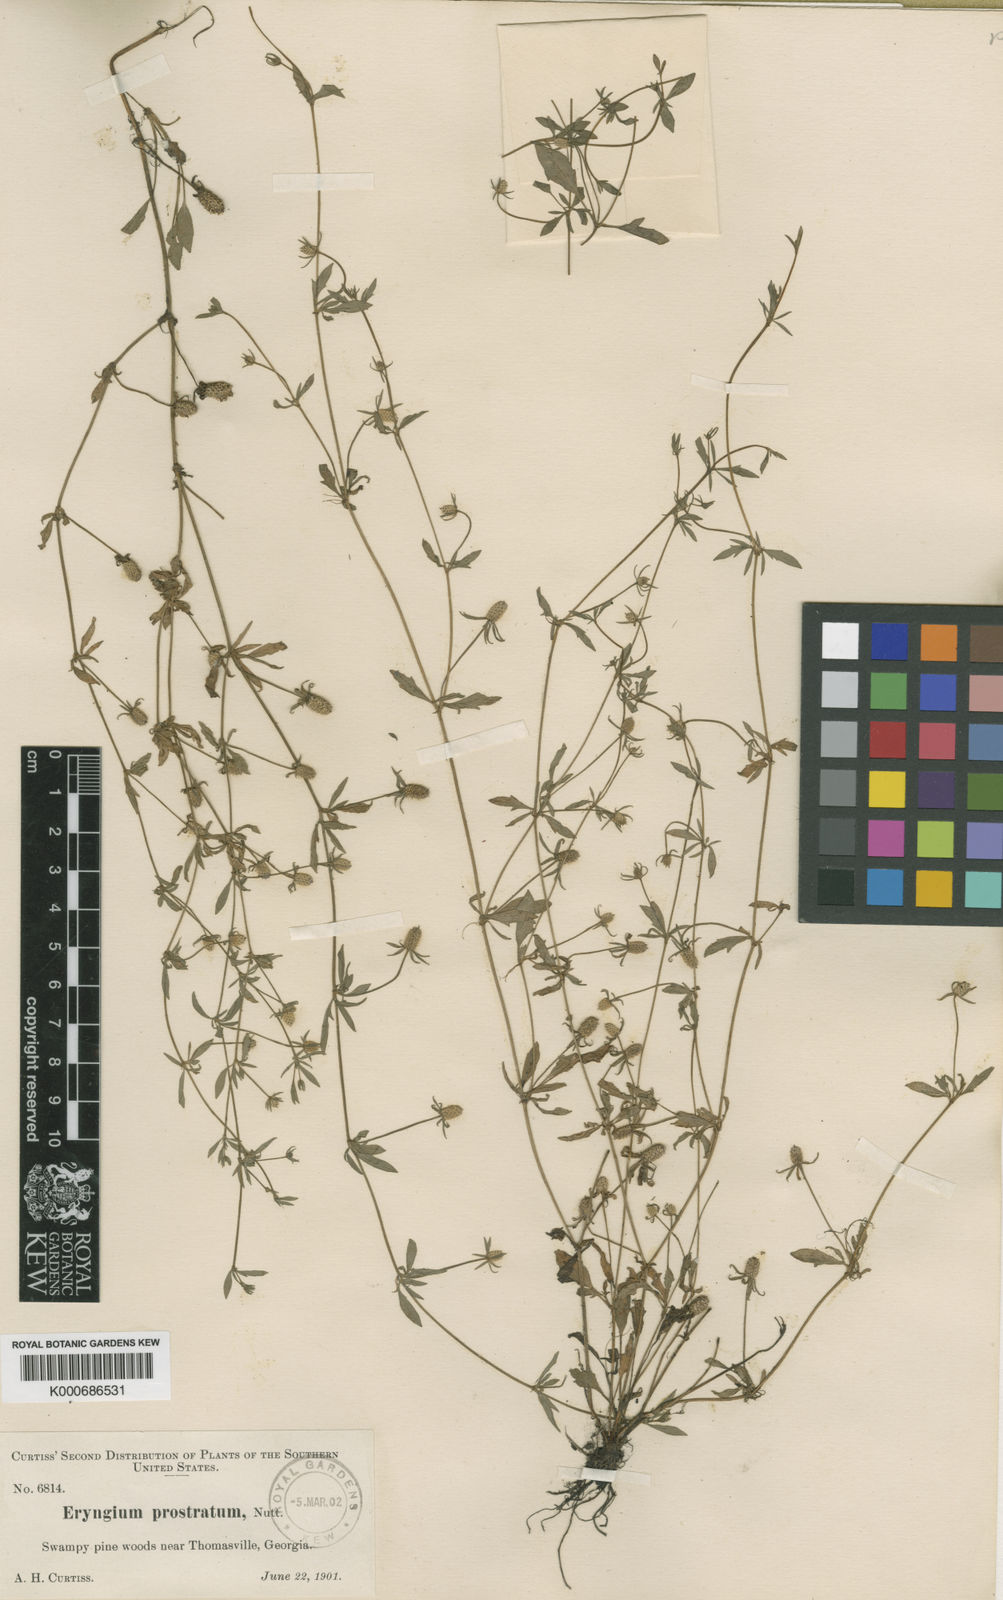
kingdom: Plantae
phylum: Tracheophyta
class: Magnoliopsida
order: Apiales
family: Apiaceae
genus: Eryngium
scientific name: Eryngium prostratum
